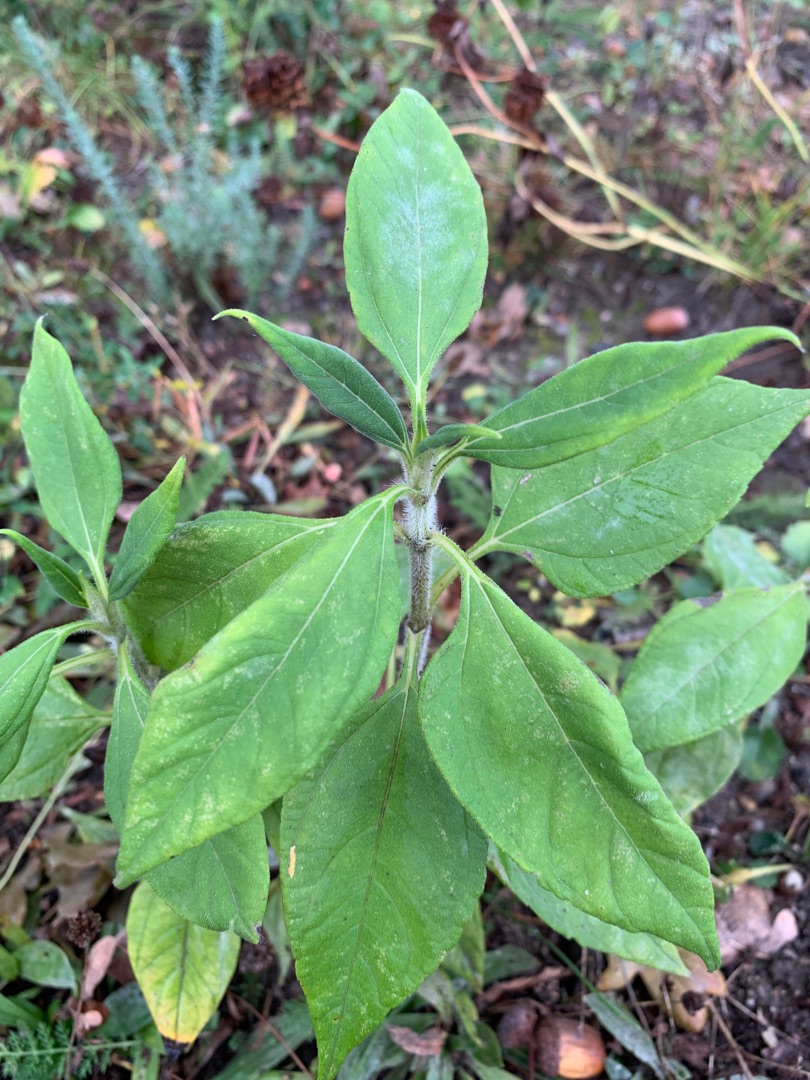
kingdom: Plantae
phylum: Tracheophyta
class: Magnoliopsida
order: Asterales
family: Asteraceae
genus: Helianthus
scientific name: Helianthus tuberosus
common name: Jordskok
